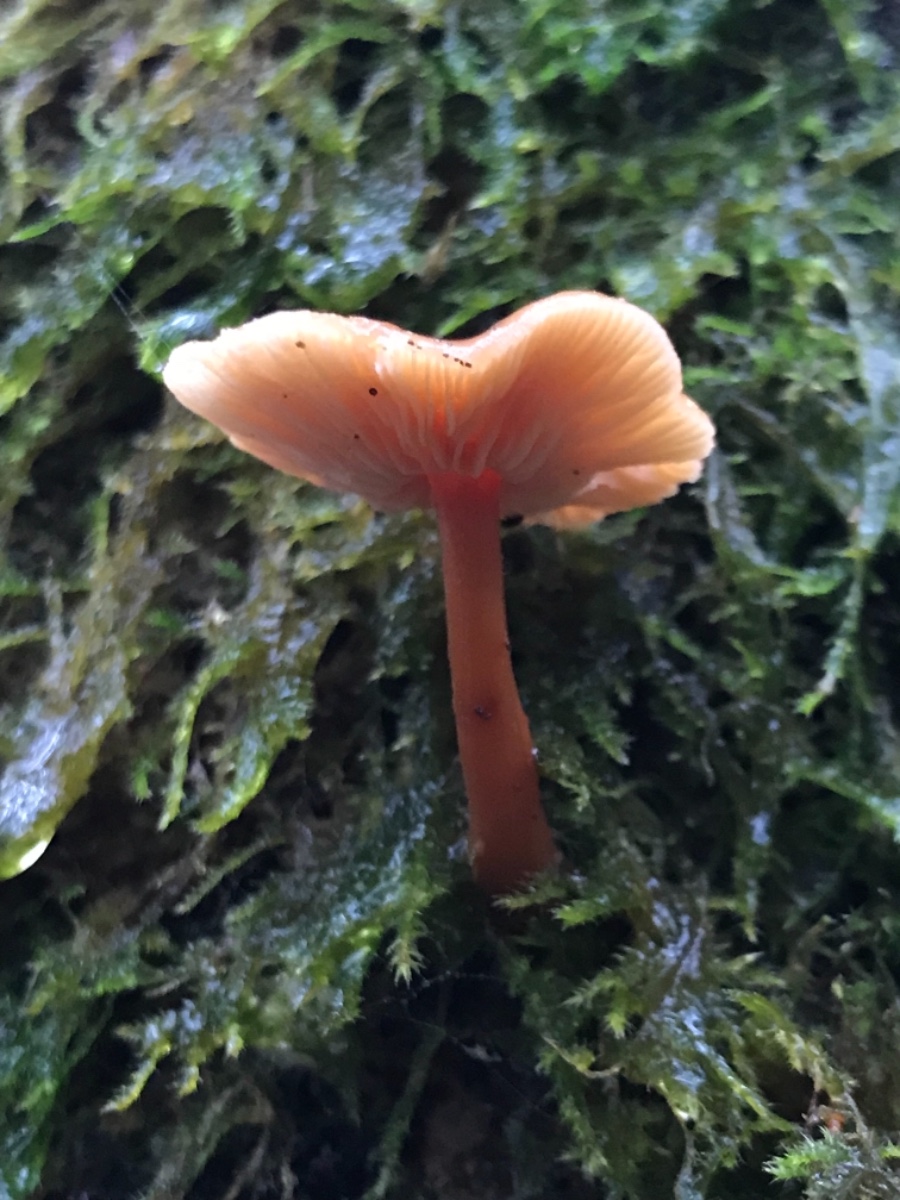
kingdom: Fungi
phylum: Basidiomycota
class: Agaricomycetes
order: Agaricales
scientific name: Agaricales
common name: champignonordenen
